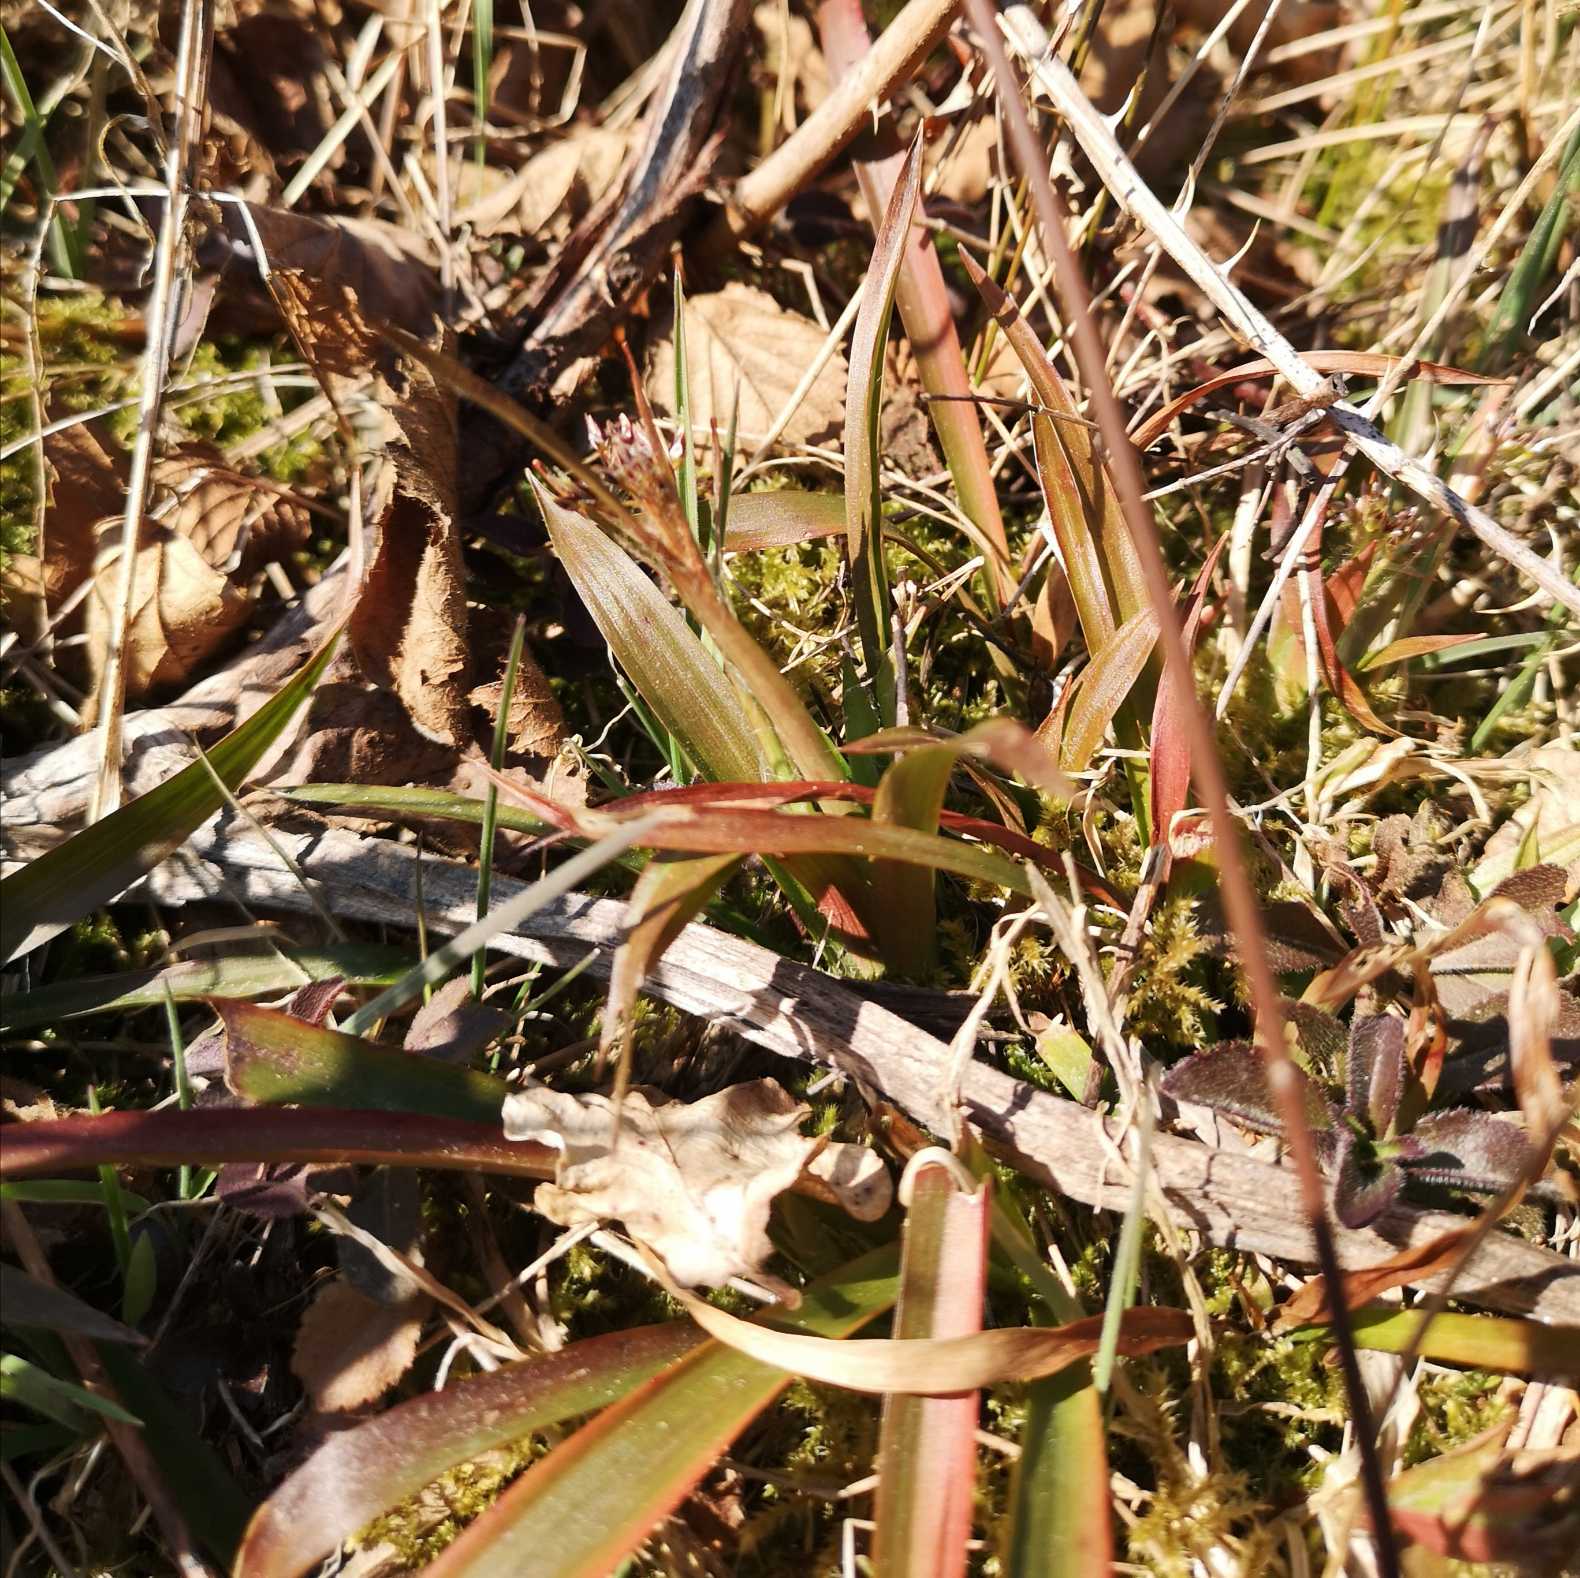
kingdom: Plantae
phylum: Tracheophyta
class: Liliopsida
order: Poales
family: Juncaceae
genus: Luzula
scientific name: Luzula pilosa
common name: Håret frytle
